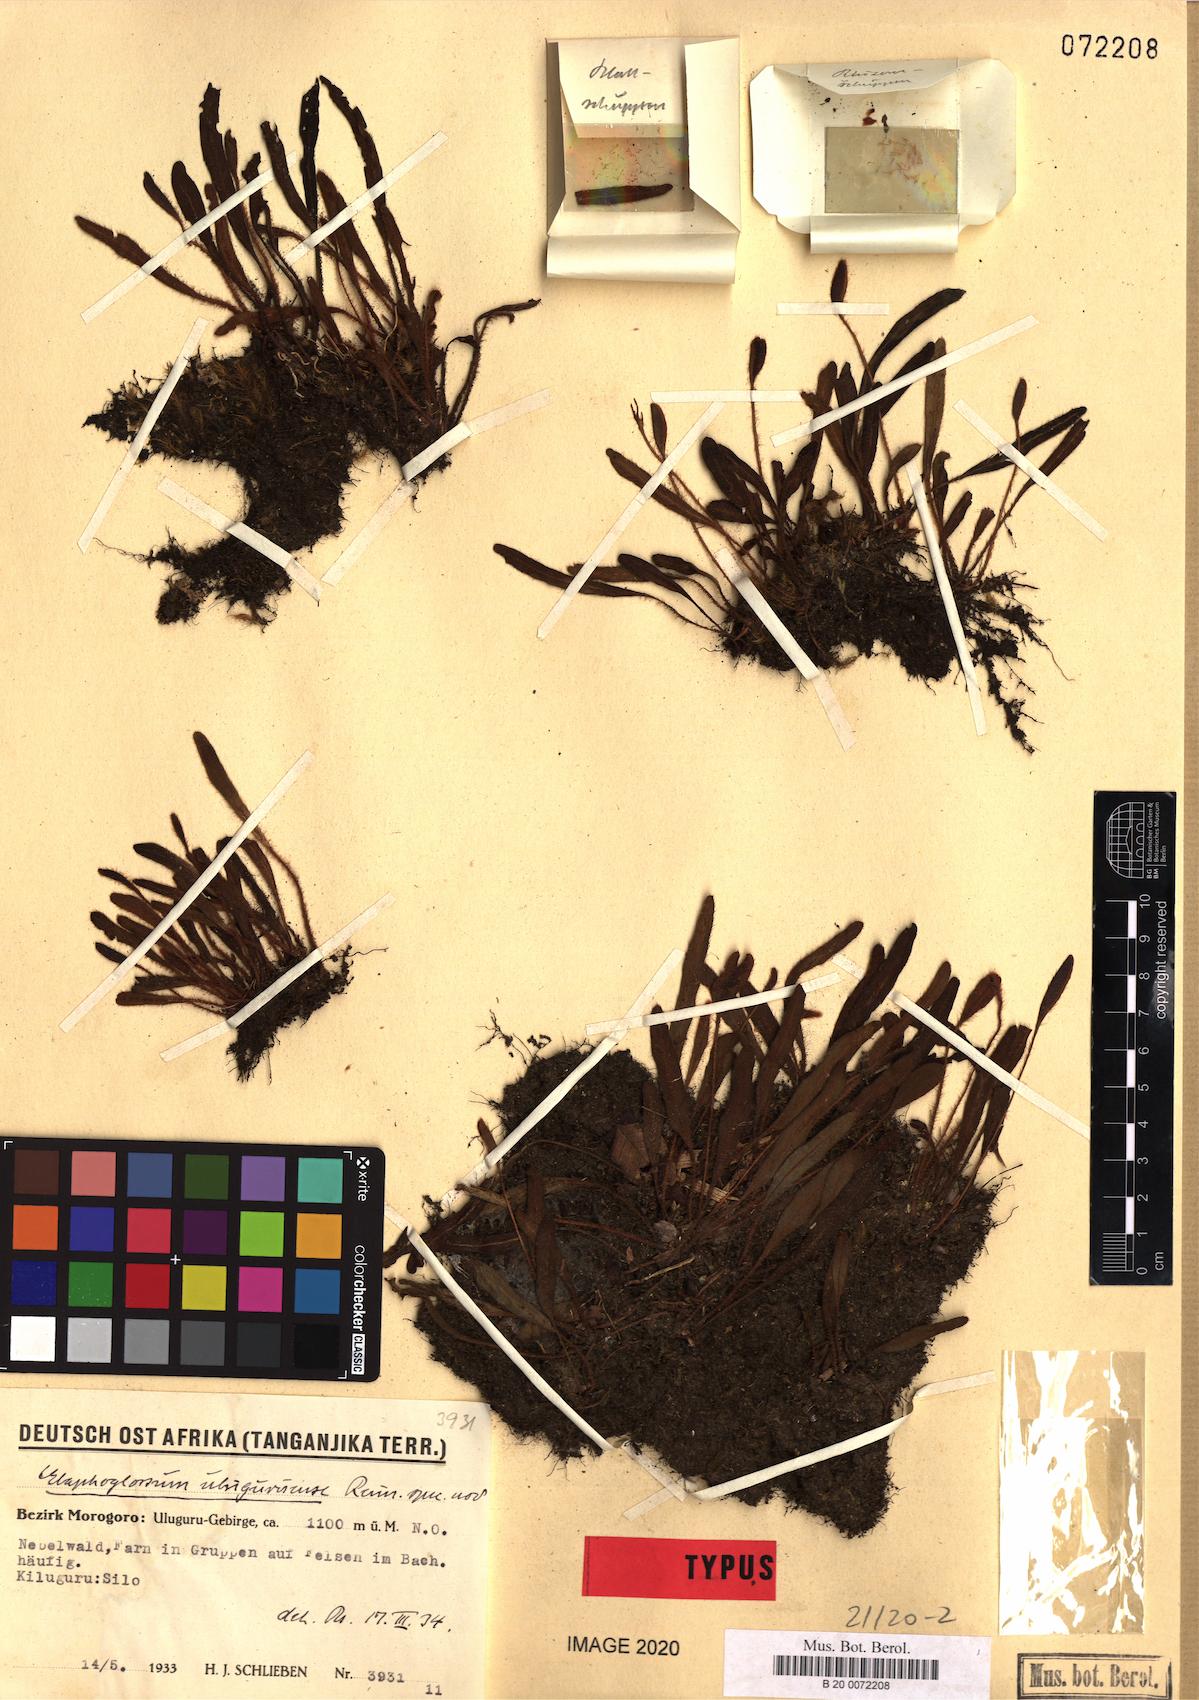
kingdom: Plantae
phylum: Tracheophyta
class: Polypodiopsida
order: Polypodiales
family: Dryopteridaceae
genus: Elaphoglossum
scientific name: Elaphoglossum spatulatum
